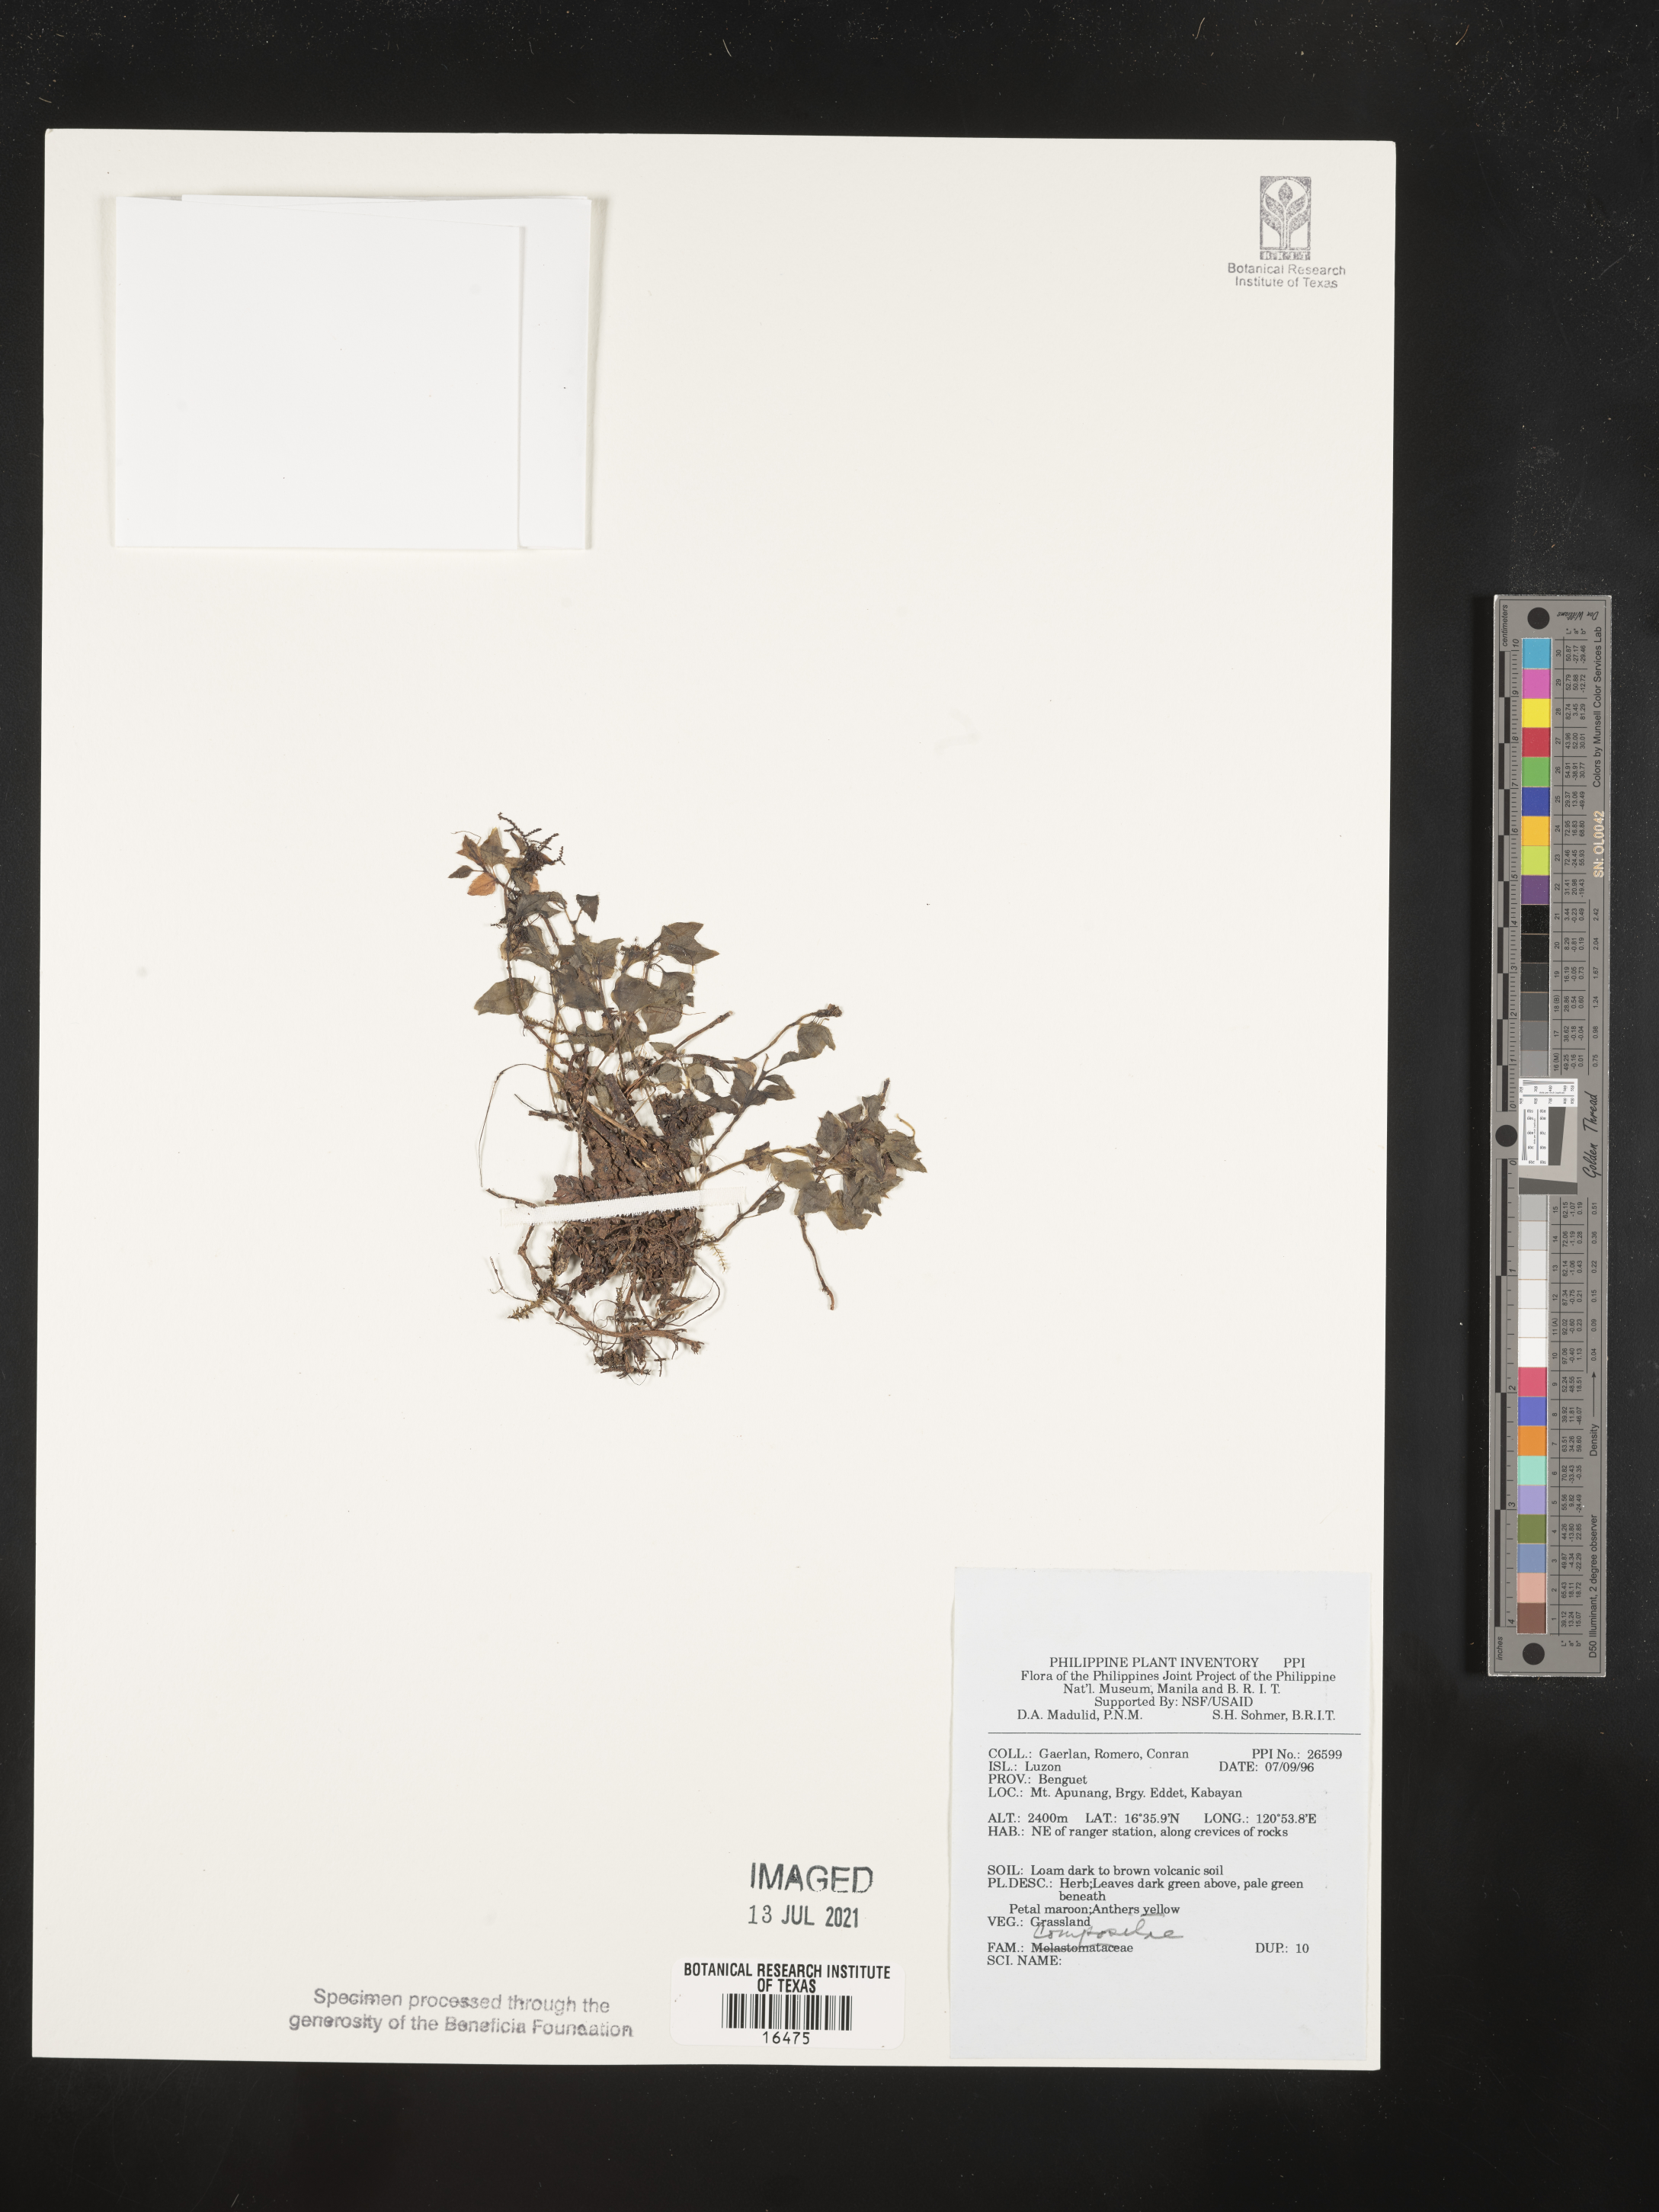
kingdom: Plantae
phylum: Tracheophyta
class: Magnoliopsida
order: Asterales
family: Asteraceae
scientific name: Asteraceae
